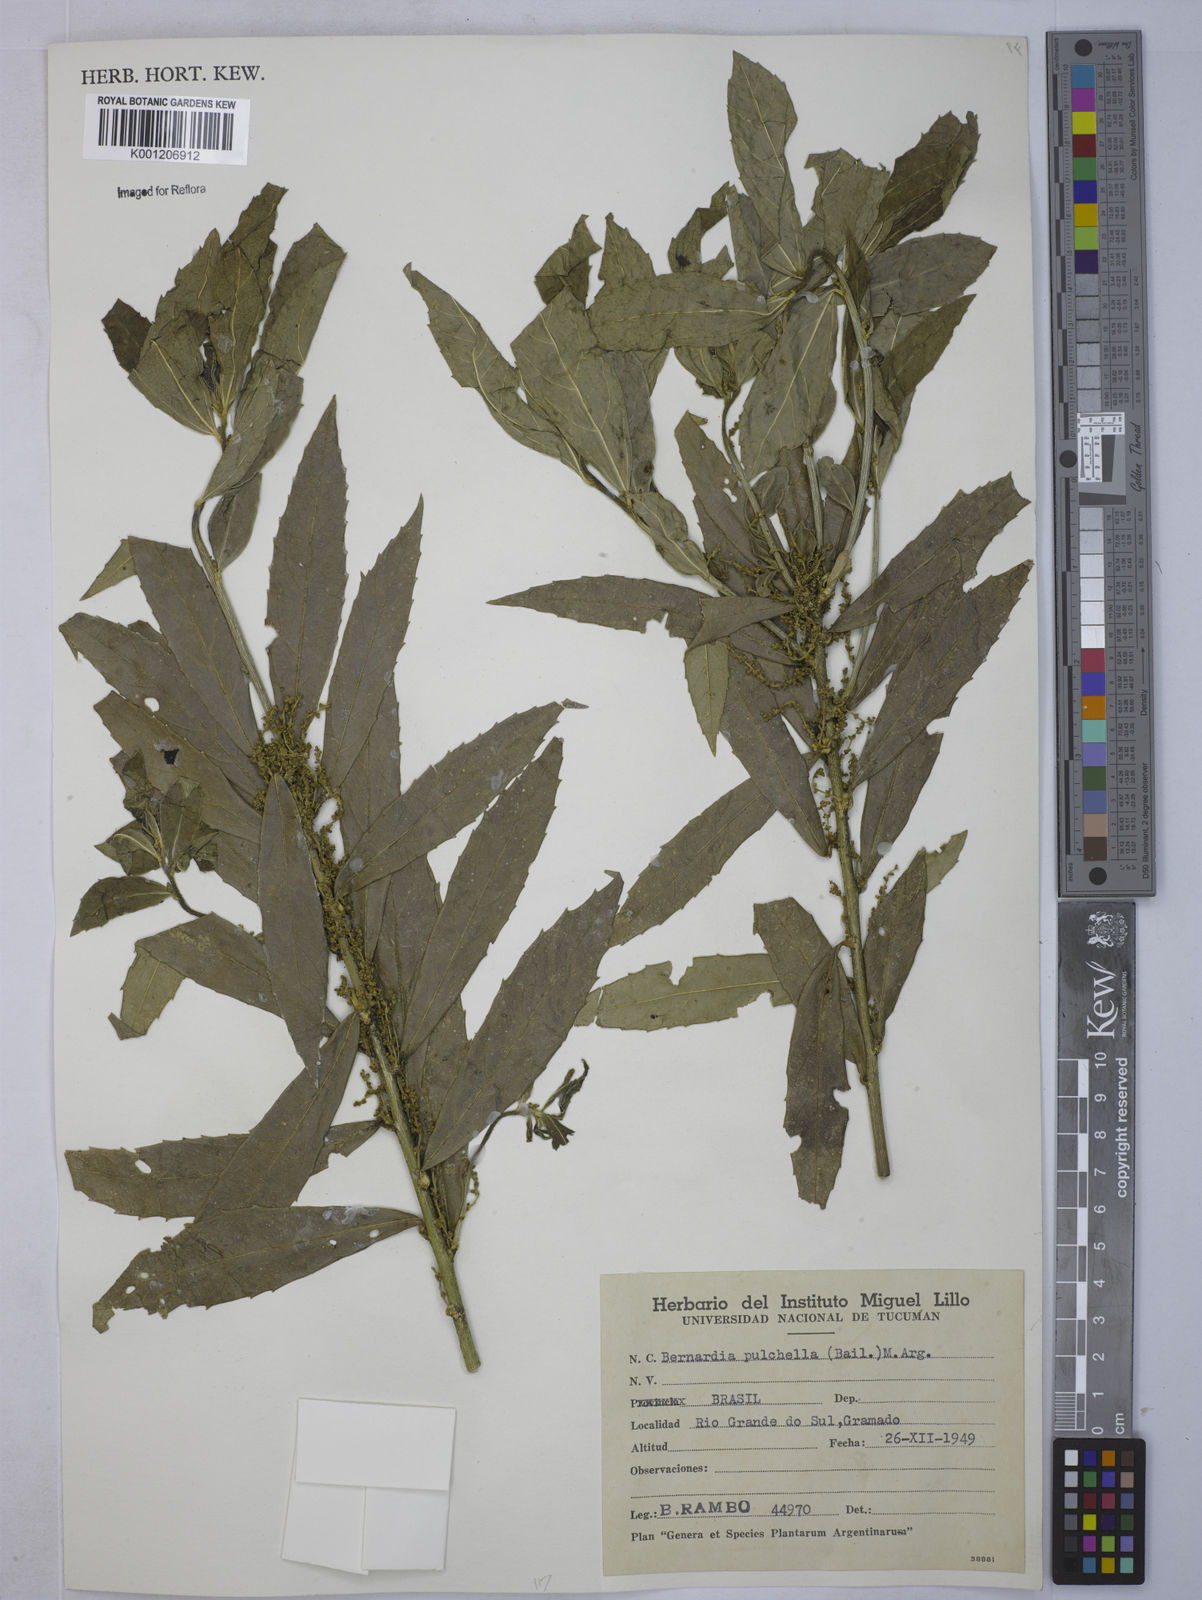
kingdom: Plantae
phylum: Tracheophyta
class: Magnoliopsida
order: Malpighiales
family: Euphorbiaceae
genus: Bernardia
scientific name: Bernardia
